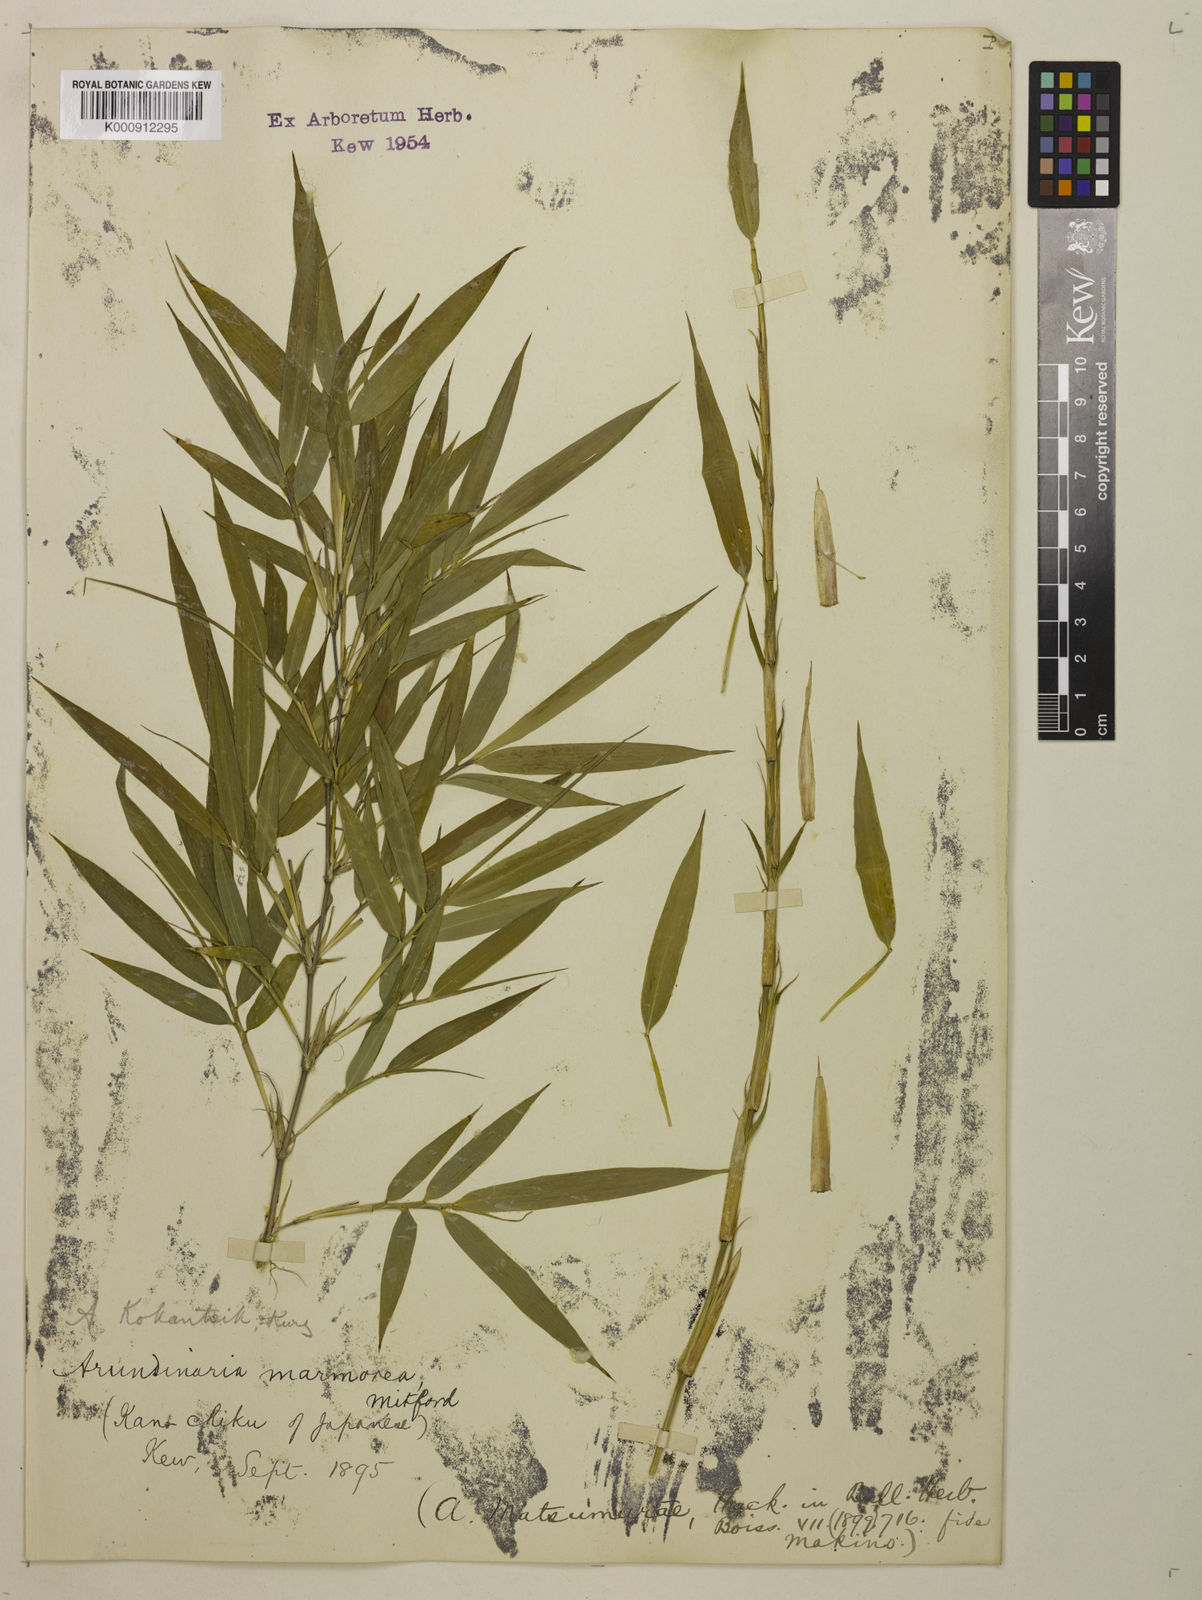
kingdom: Plantae
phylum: Tracheophyta
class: Liliopsida
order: Poales
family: Poaceae
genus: Chimonobambusa
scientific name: Chimonobambusa marmorea
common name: Marbled bamboo
